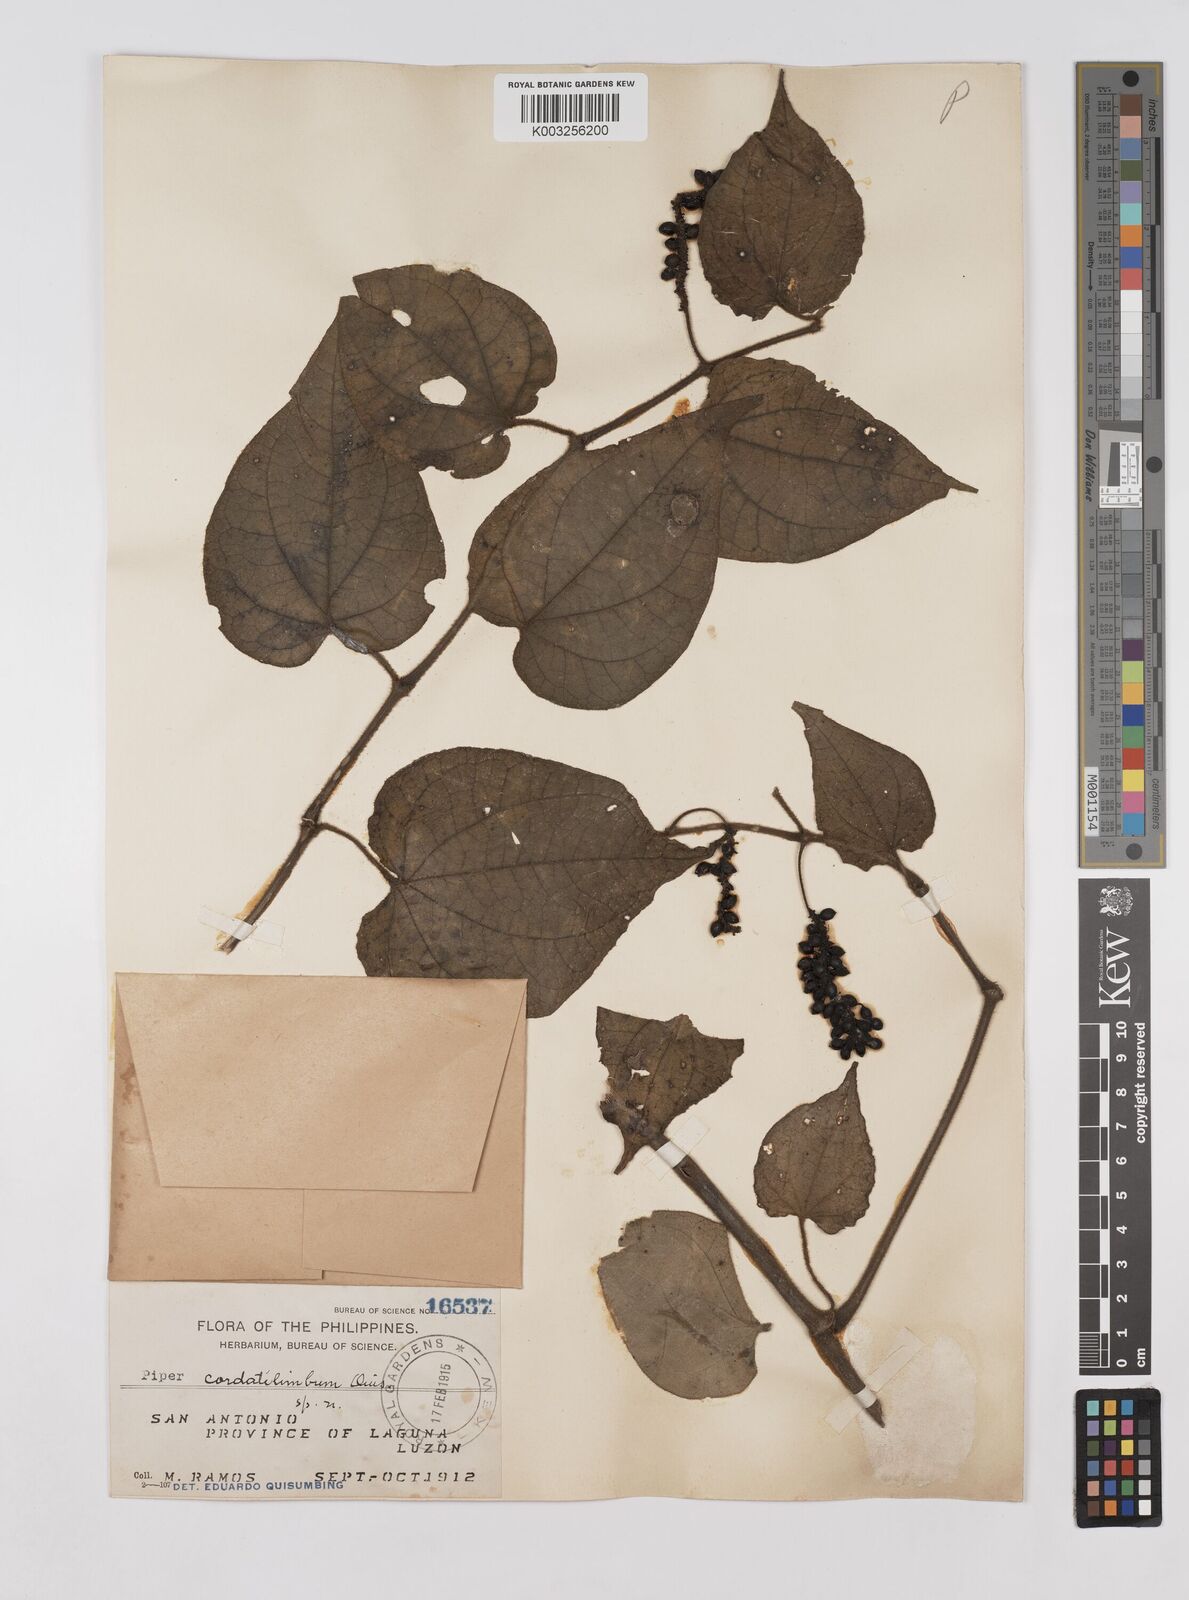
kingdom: Plantae
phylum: Tracheophyta
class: Magnoliopsida
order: Piperales
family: Piperaceae
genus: Piper
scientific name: Piper cordatilimbum
